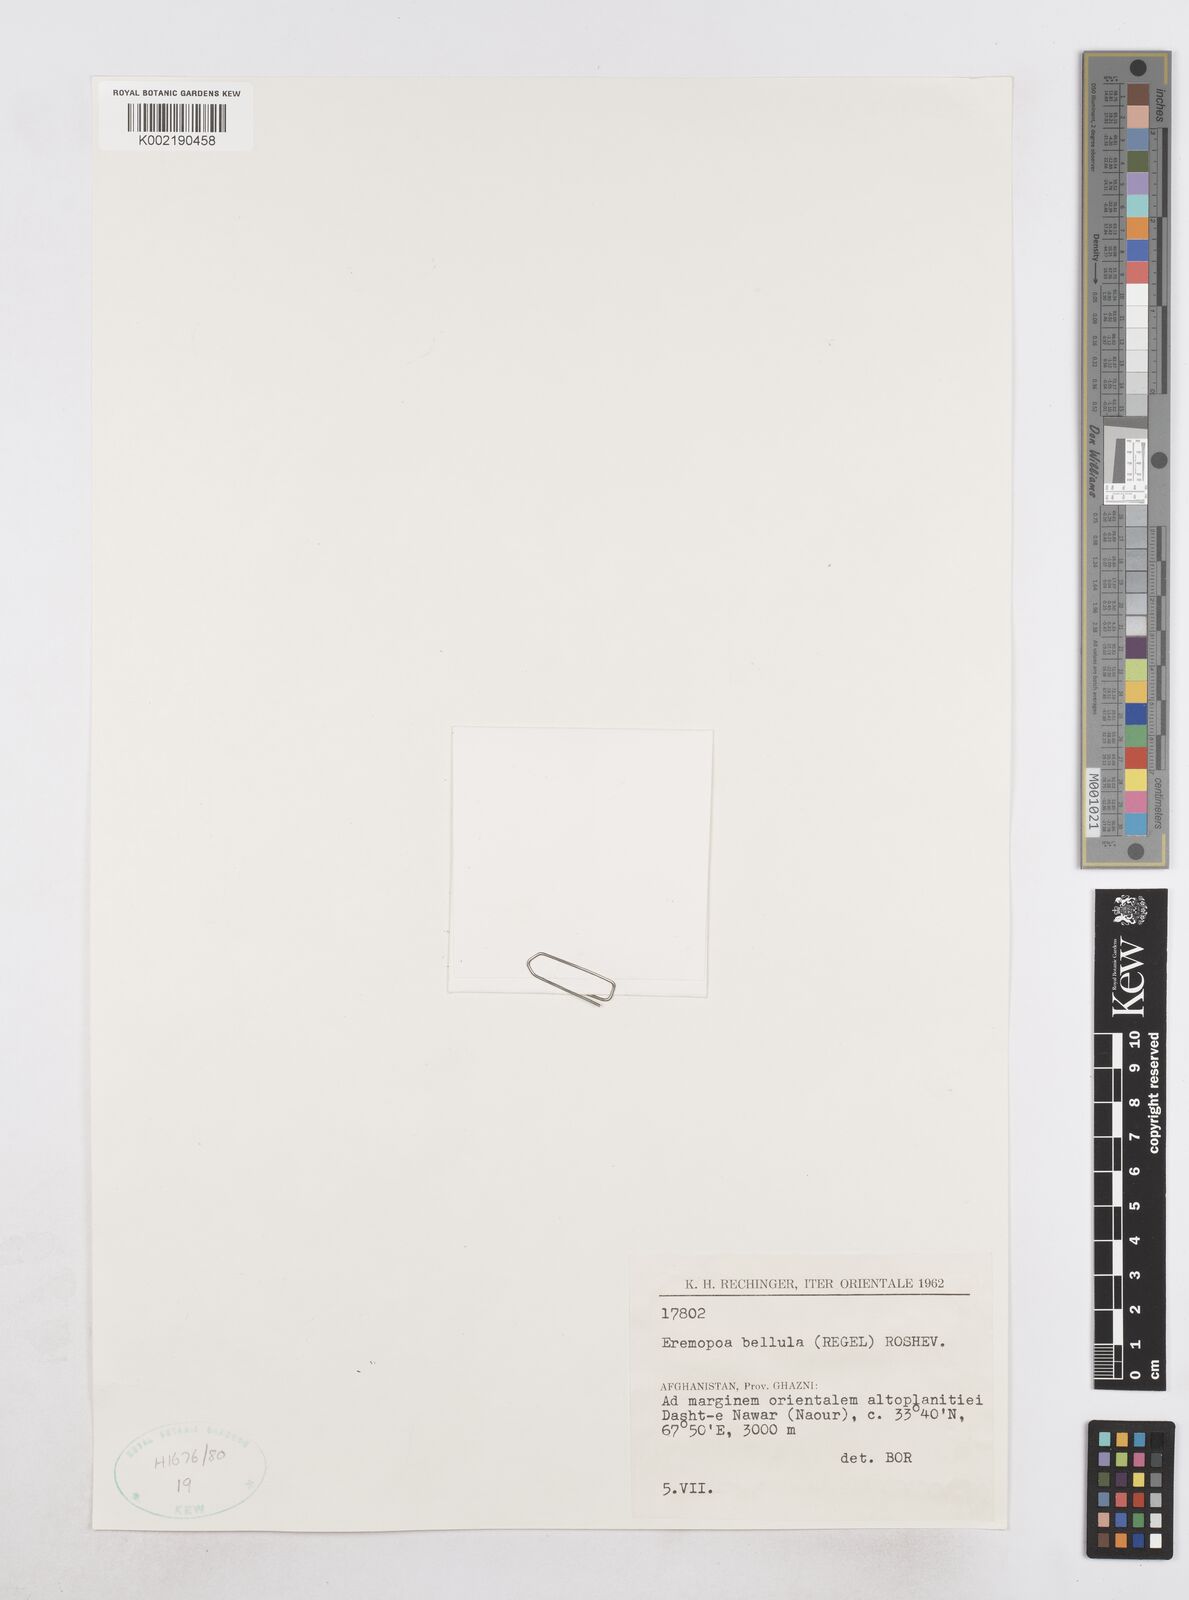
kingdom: Plantae
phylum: Tracheophyta
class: Liliopsida
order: Poales
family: Poaceae
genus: Poa
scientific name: Poa diaphora
